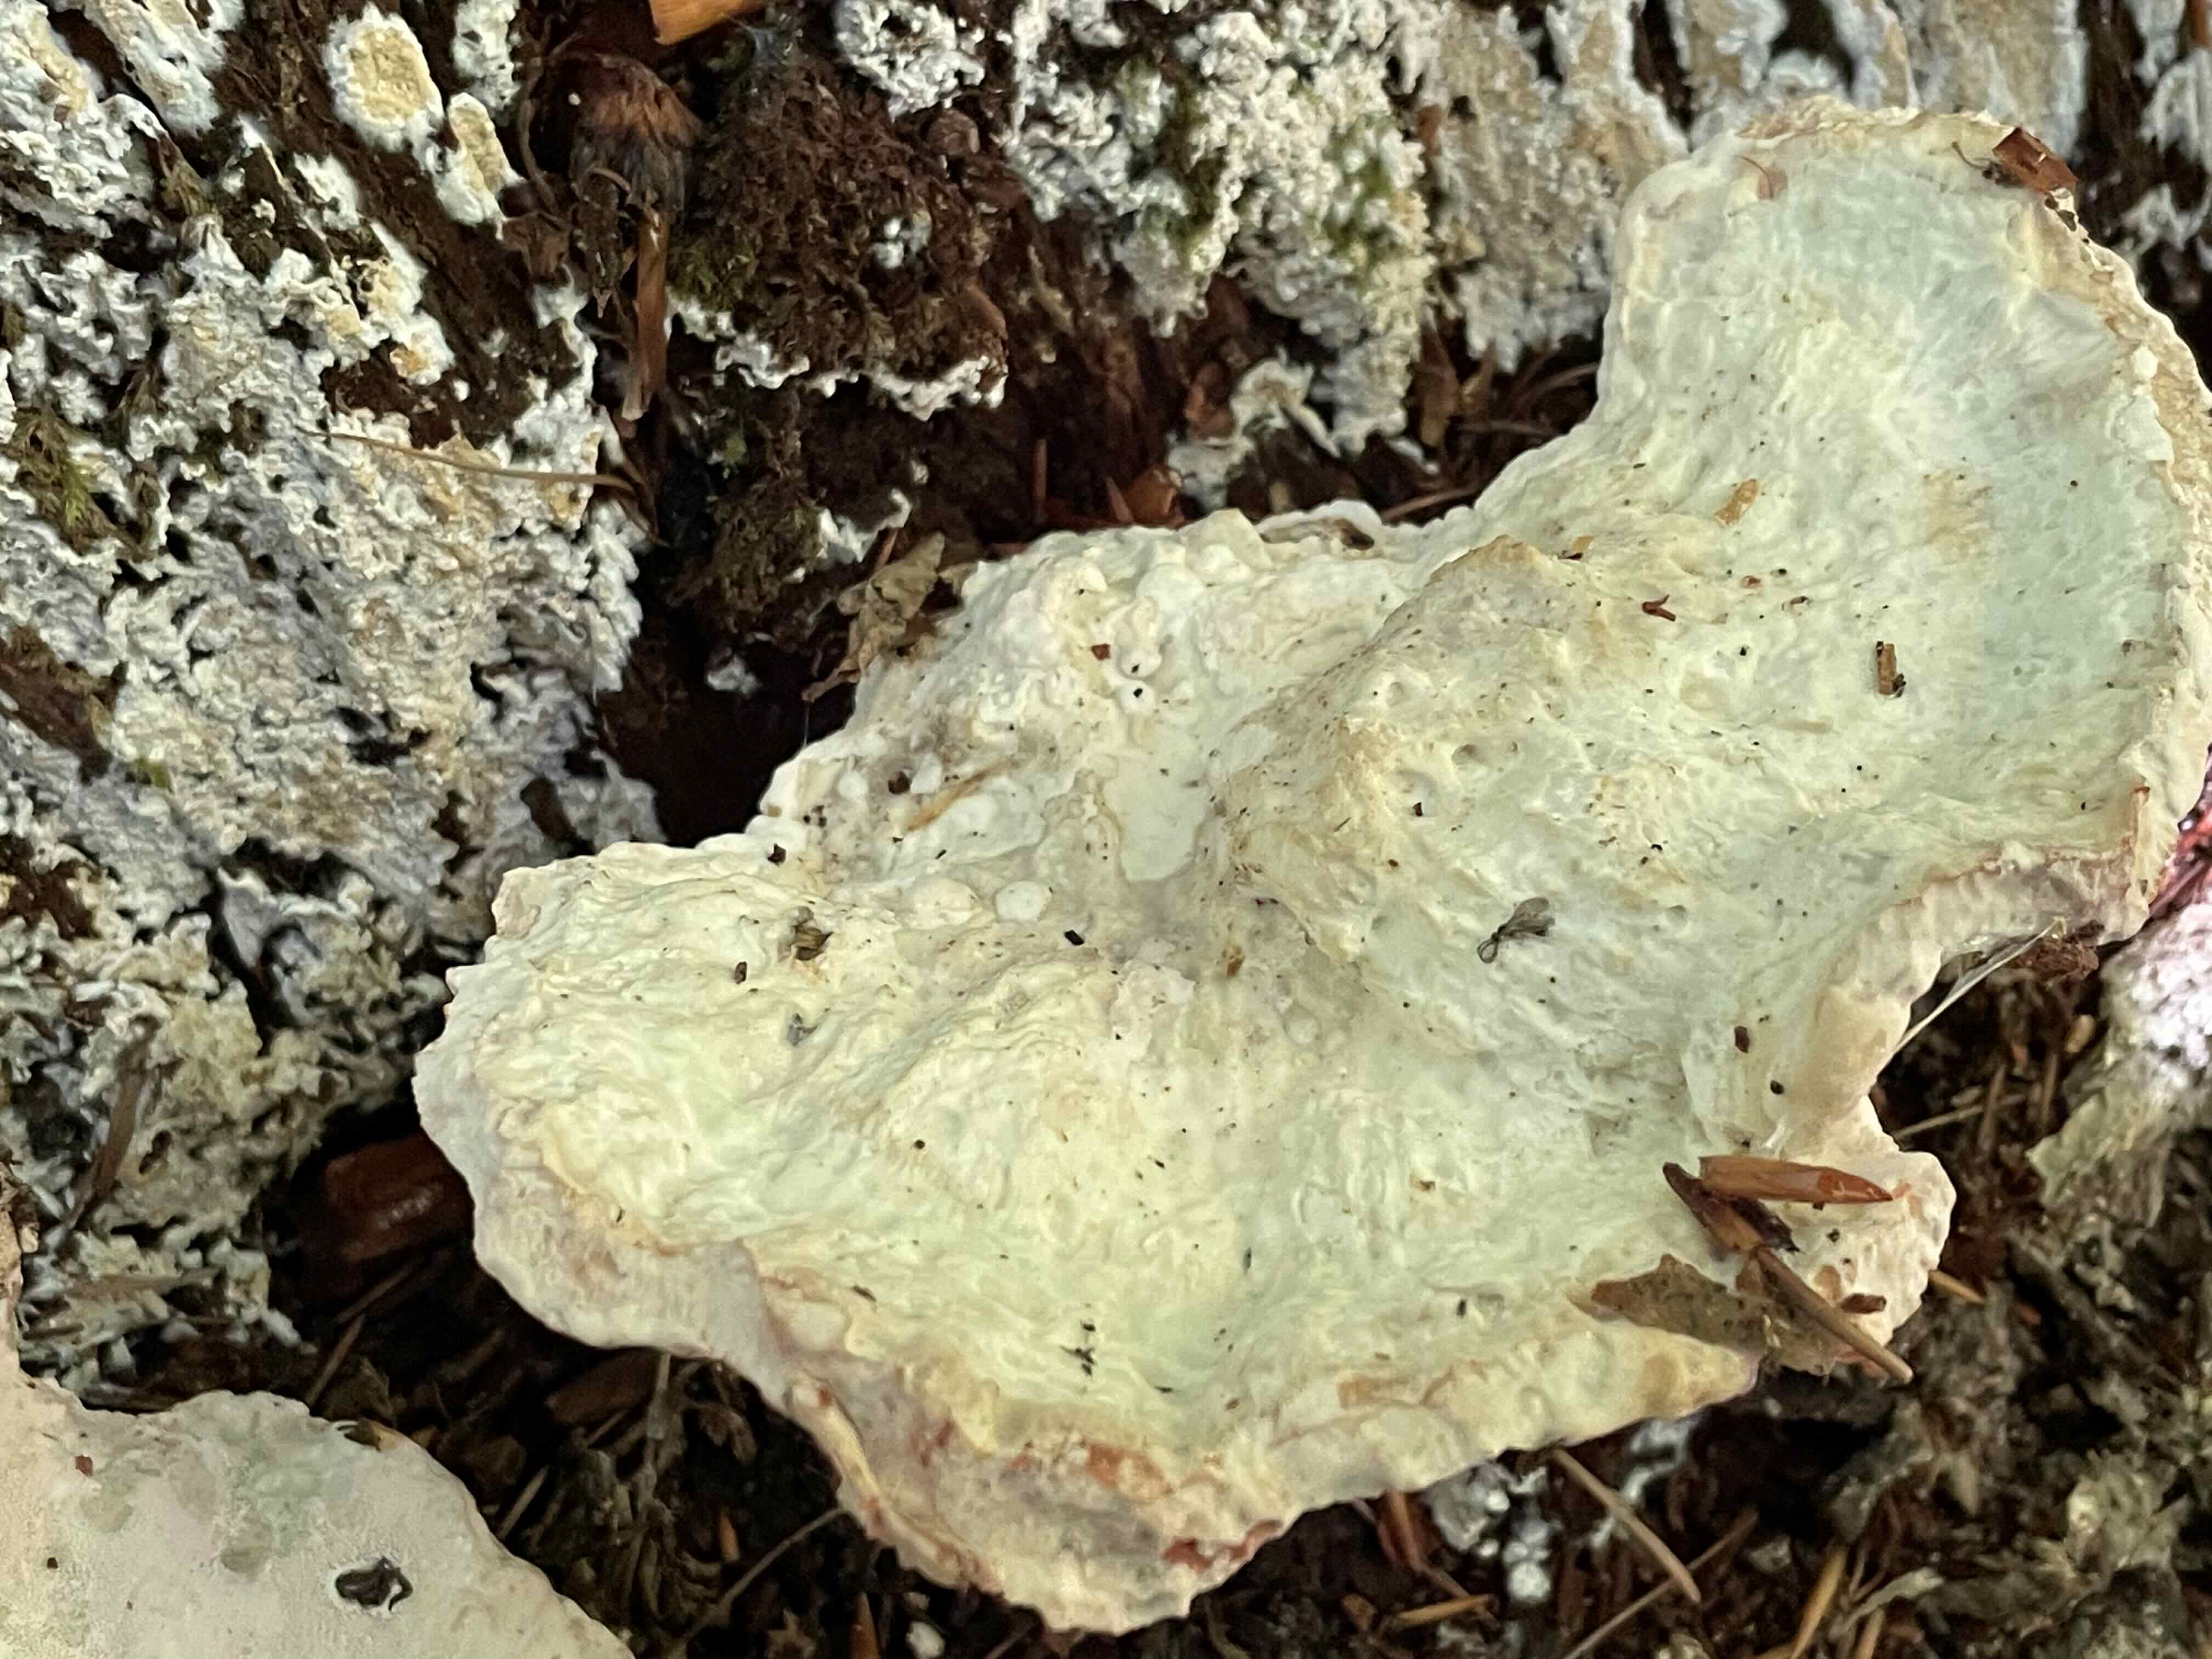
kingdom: Fungi
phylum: Basidiomycota
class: Agaricomycetes
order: Polyporales
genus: Calcipostia
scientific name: Calcipostia guttulata
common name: dråbe-kødporesvamp
